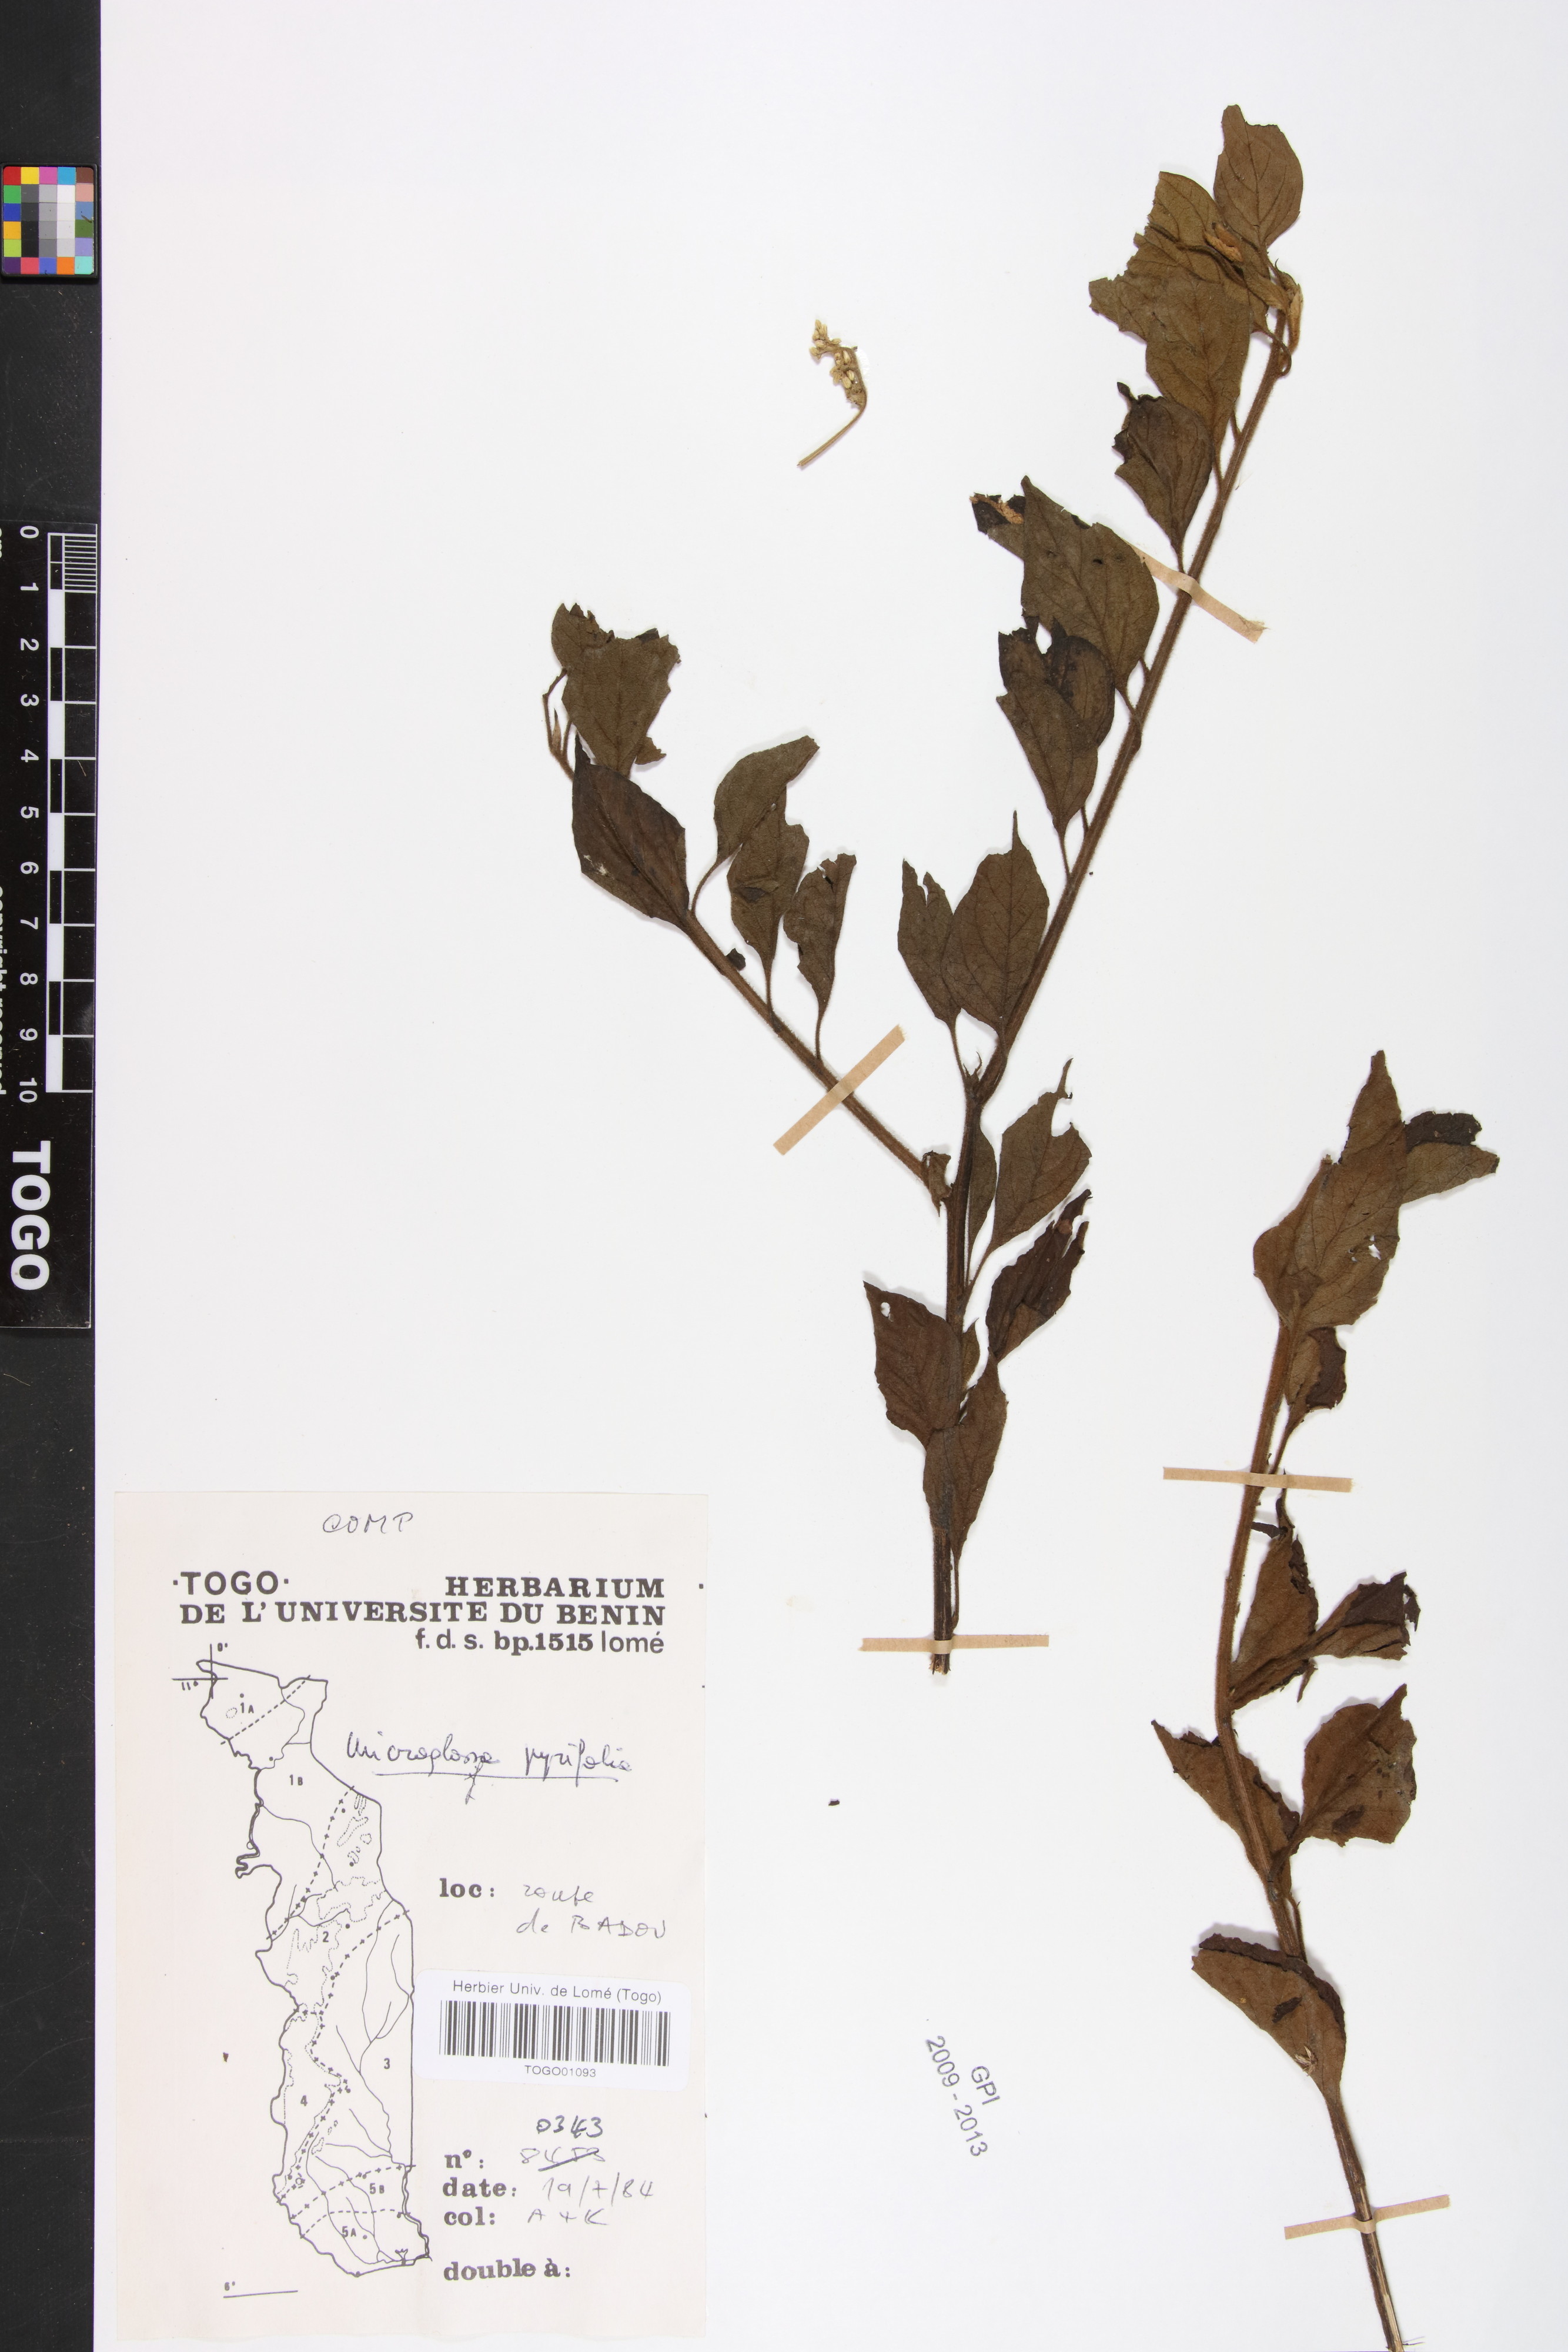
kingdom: Plantae
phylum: Tracheophyta
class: Magnoliopsida
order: Asterales
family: Asteraceae
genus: Microglossa
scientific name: Microglossa pyrifolia
